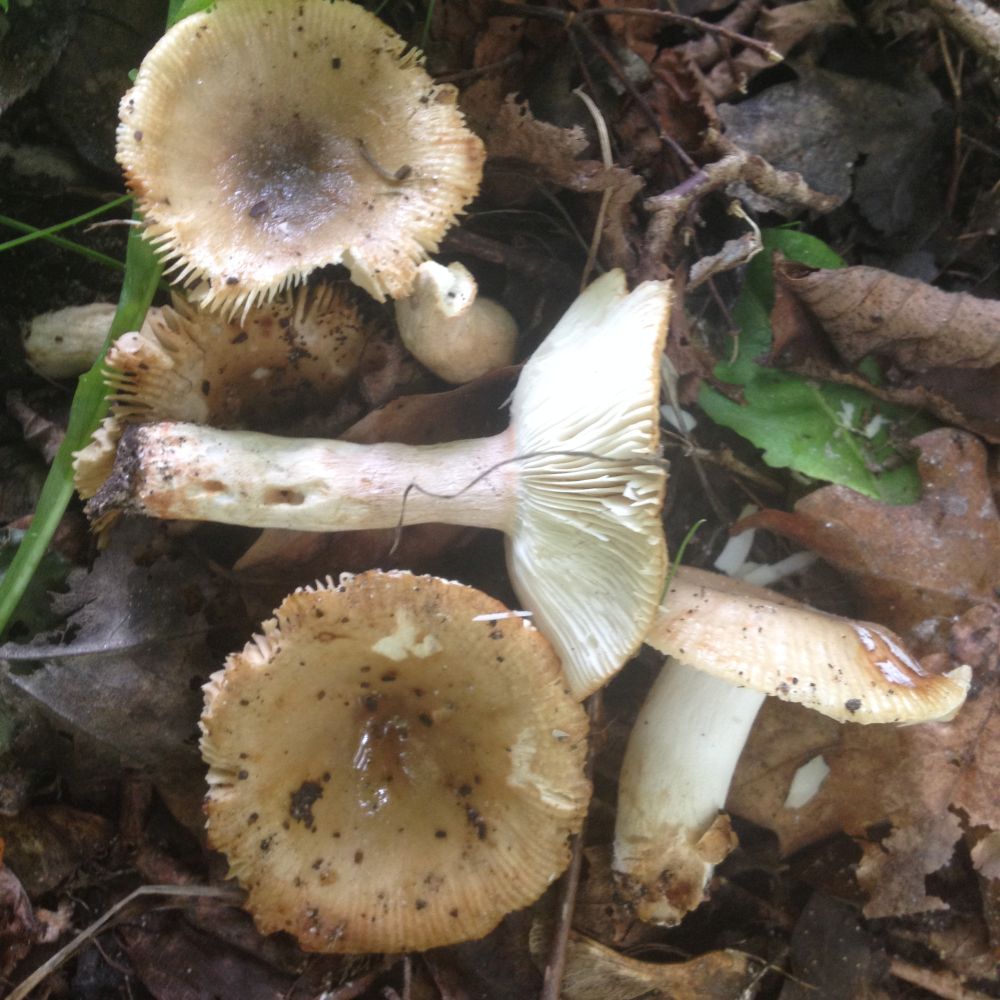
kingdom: Fungi
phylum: Basidiomycota
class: Agaricomycetes
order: Russulales
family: Russulaceae
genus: Russula
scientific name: Russula recondita
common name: mild kam-skørhat
